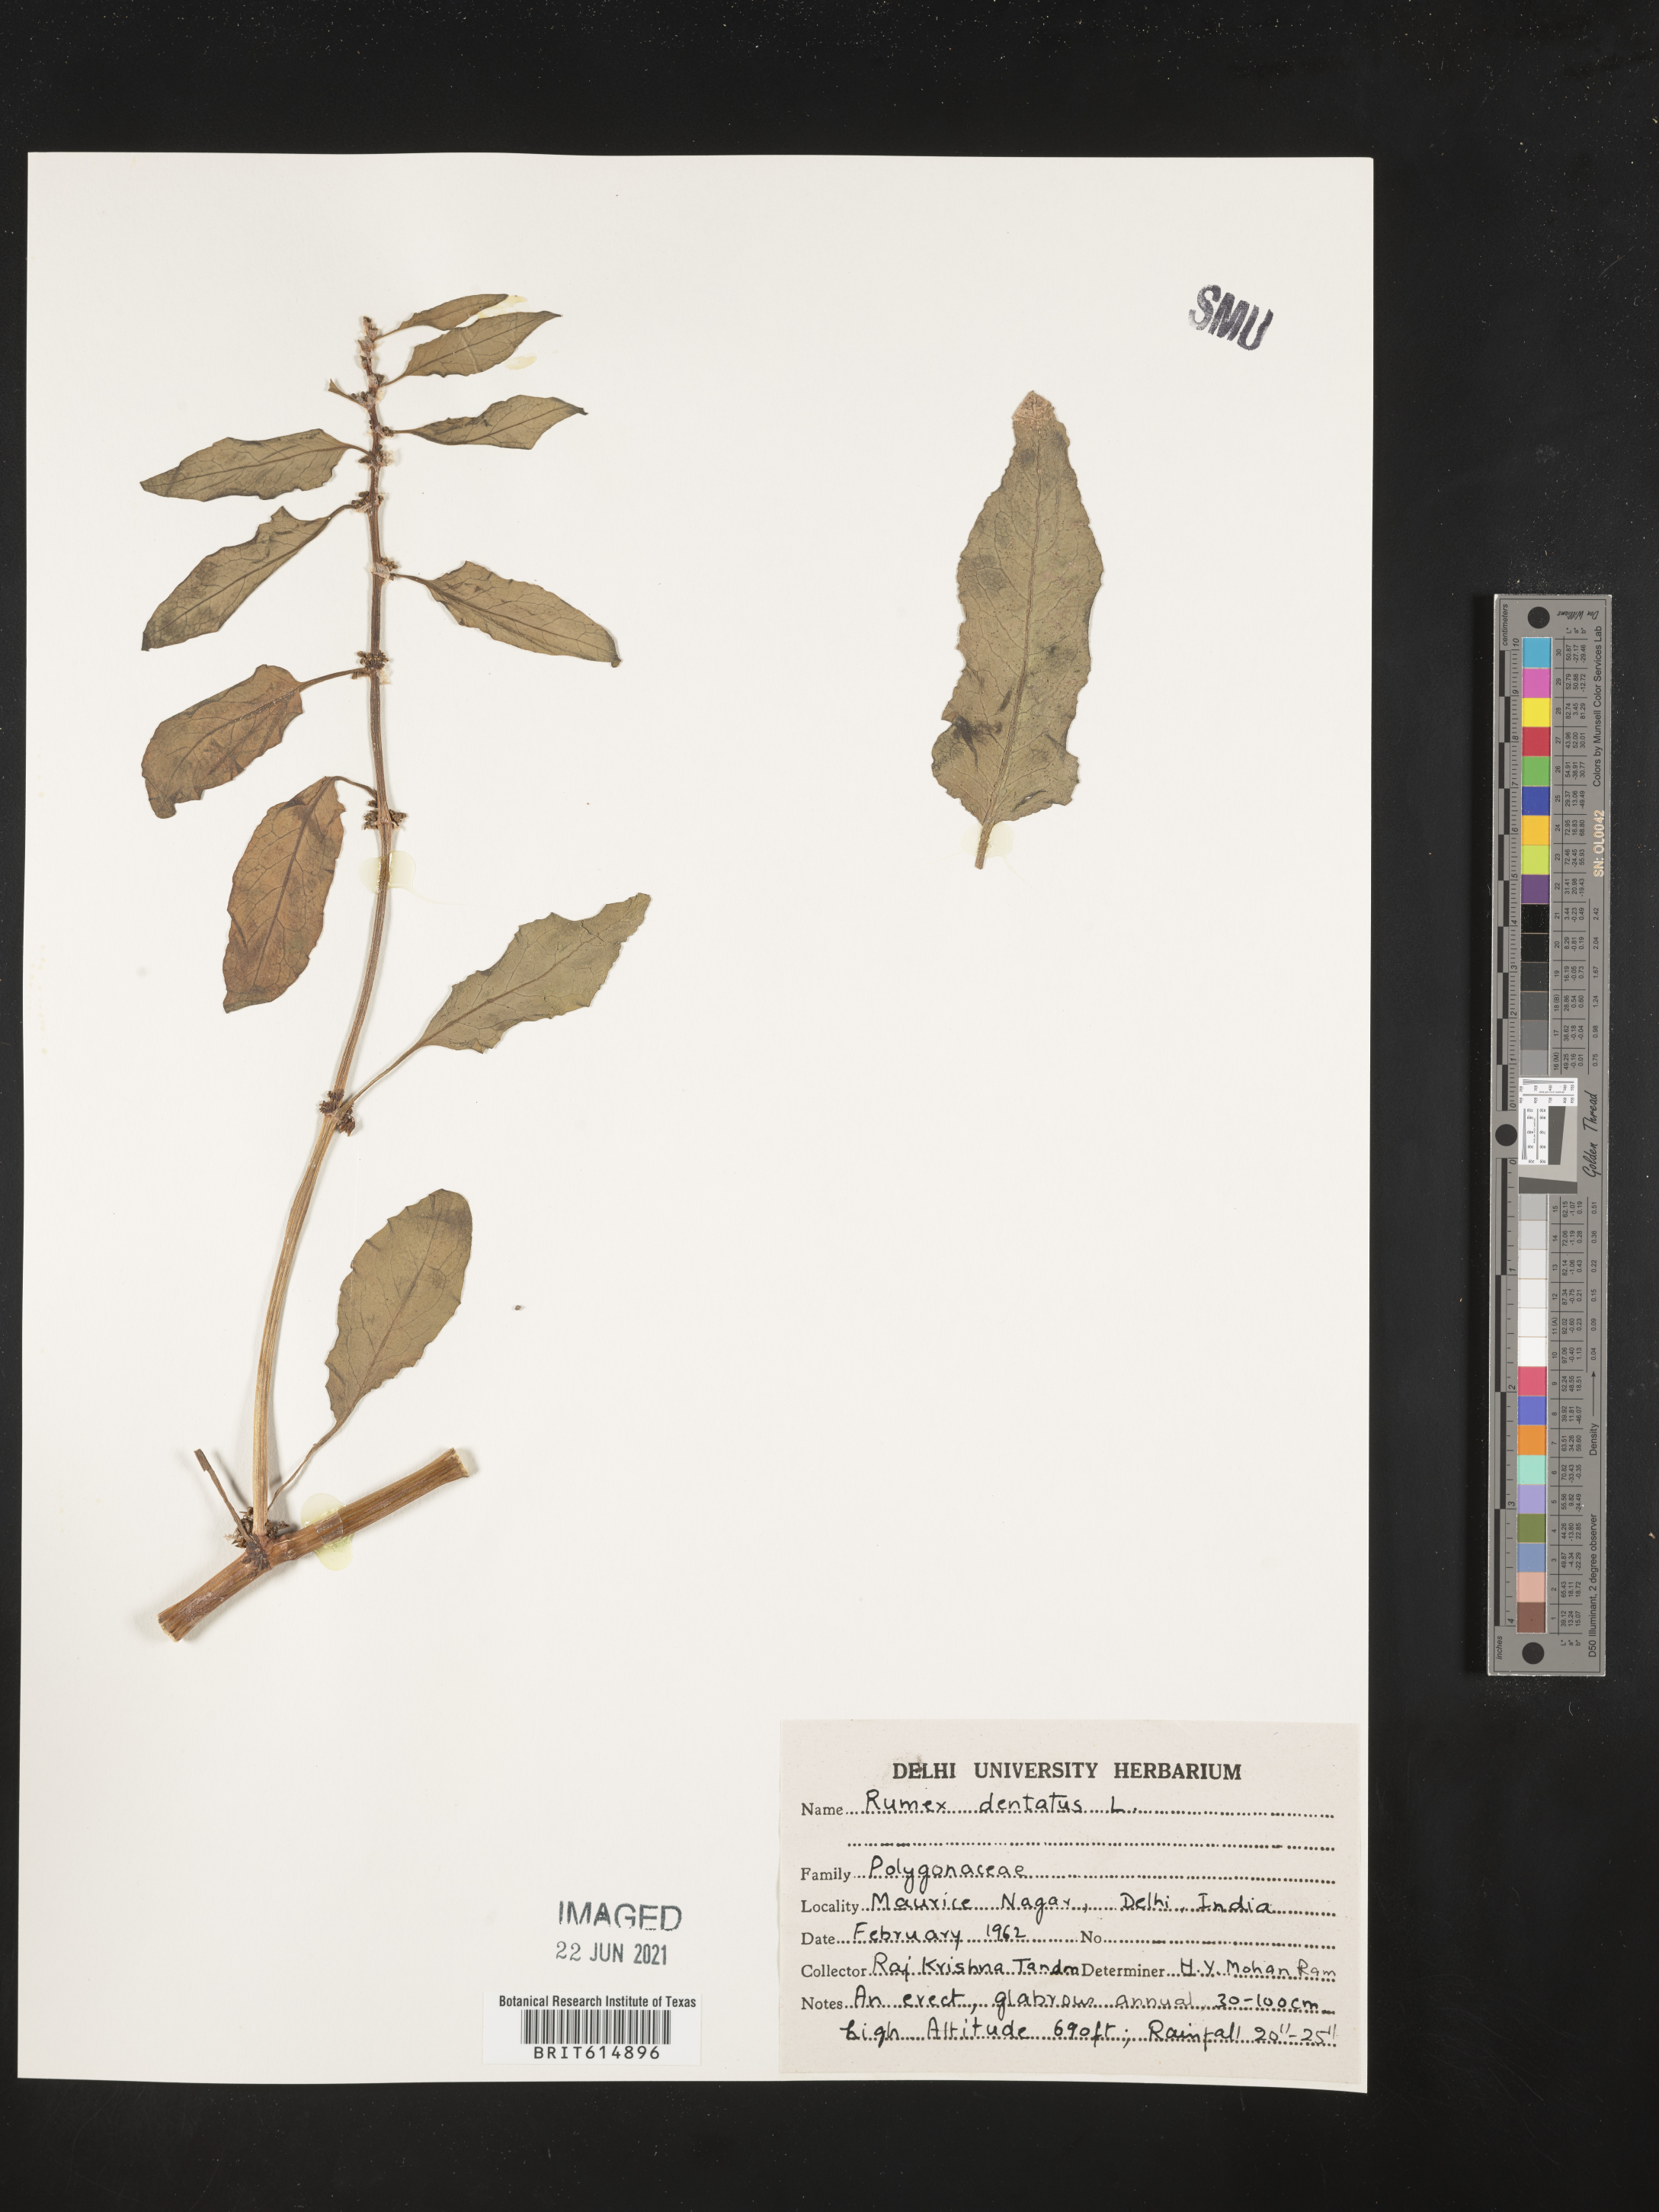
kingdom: Plantae
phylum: Tracheophyta
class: Magnoliopsida
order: Caryophyllales
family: Polygonaceae
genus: Rumex
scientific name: Rumex dentatus
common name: Toothed dock
